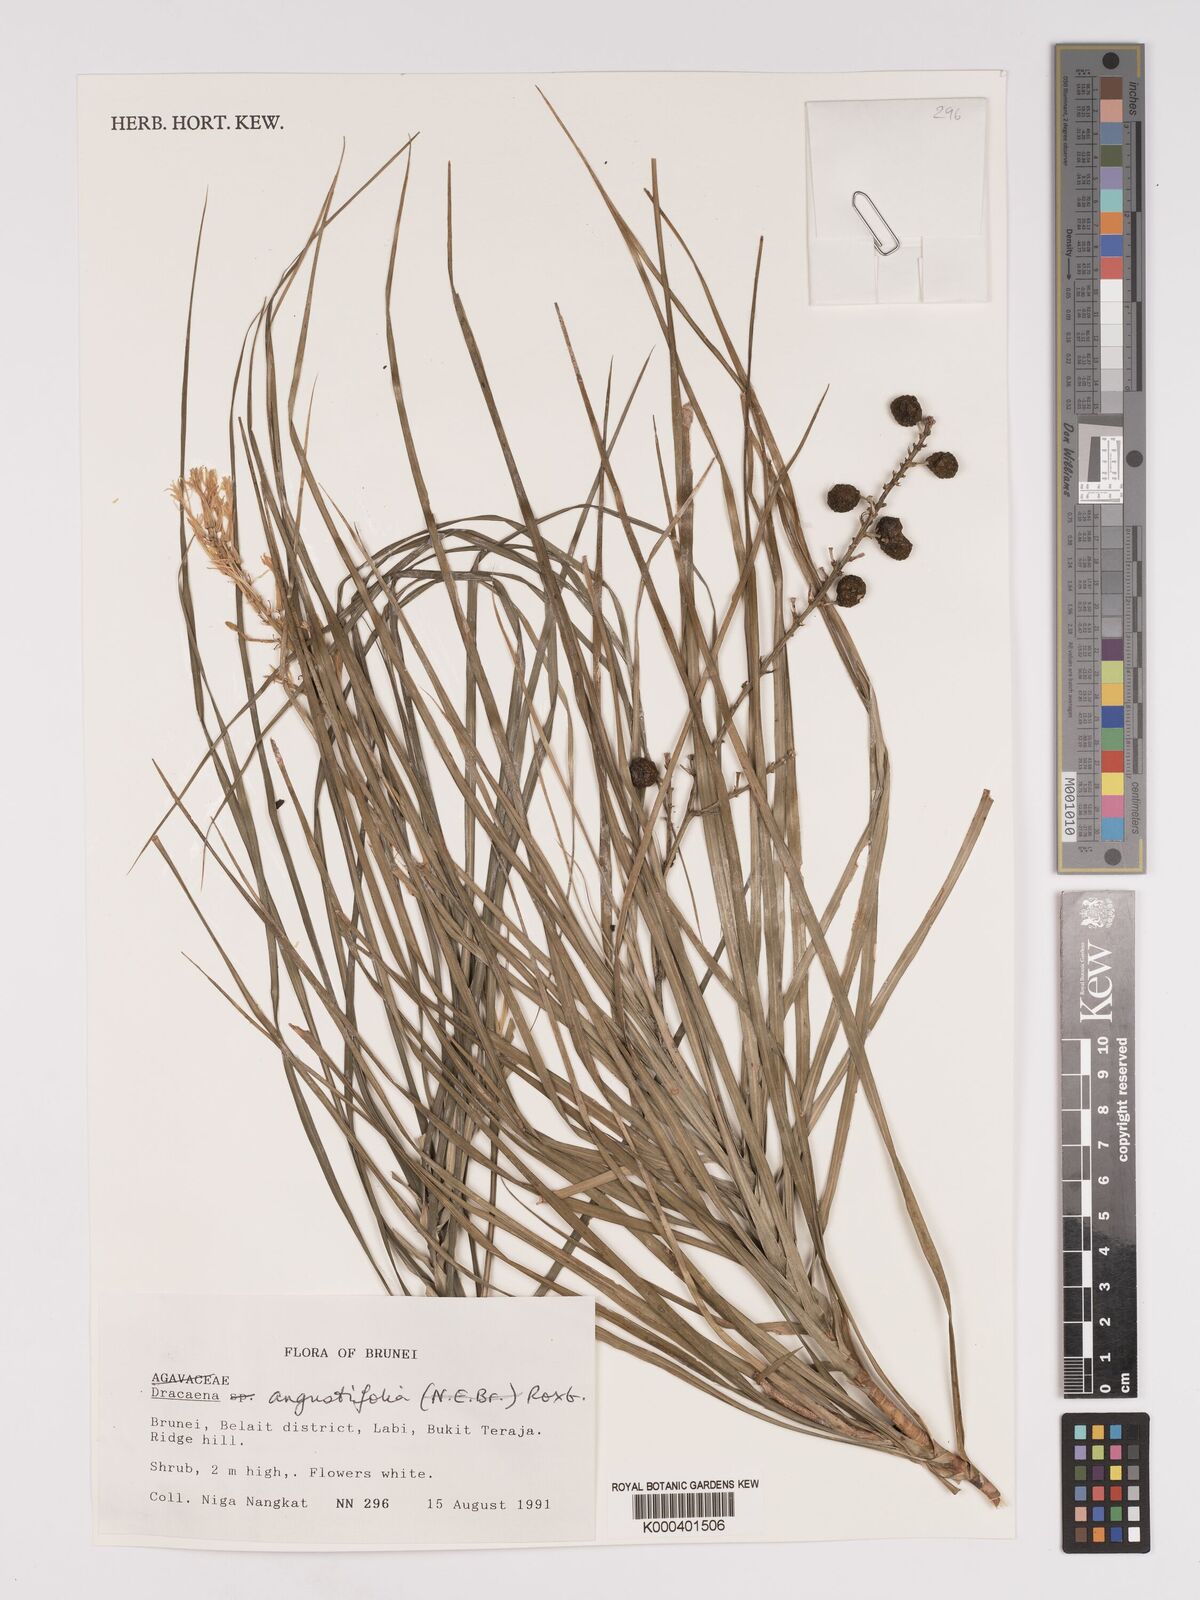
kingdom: Plantae
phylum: Tracheophyta
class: Liliopsida
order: Asparagales
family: Asparagaceae
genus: Dracaena
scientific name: Dracaena angustifolia
